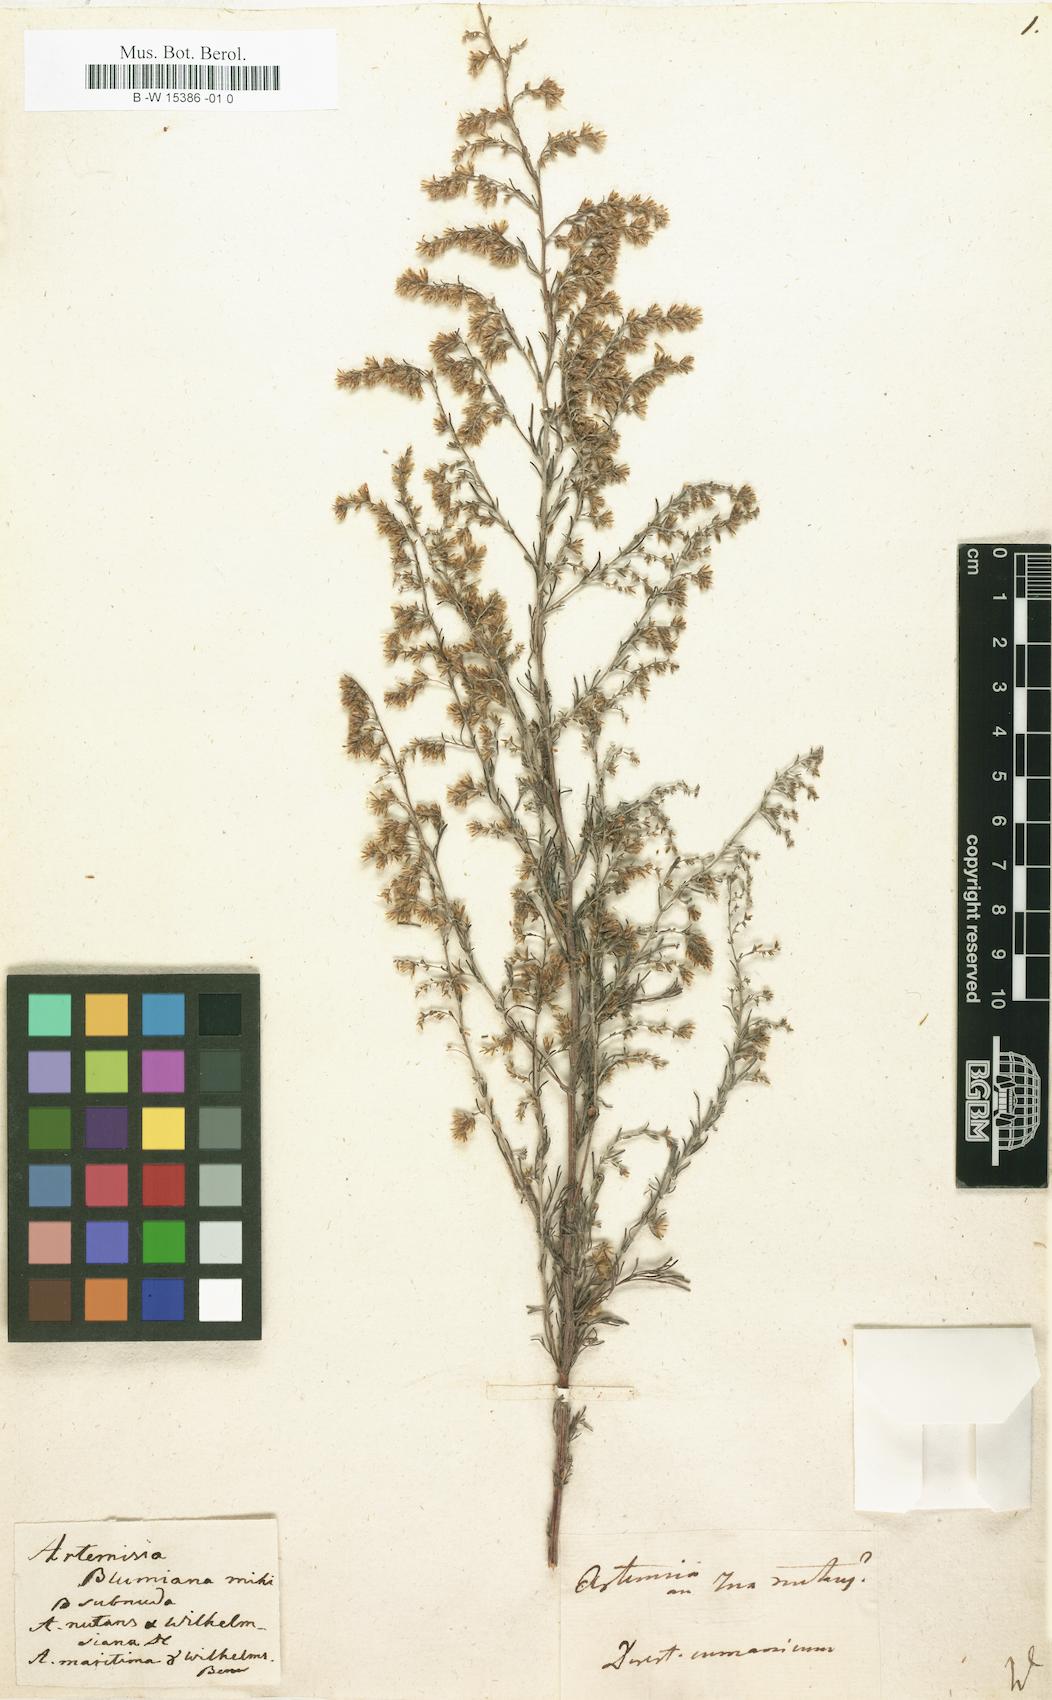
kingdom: Plantae
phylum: Tracheophyta
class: Magnoliopsida
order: Asterales
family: Asteraceae
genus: Artemisia
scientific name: Artemisia
